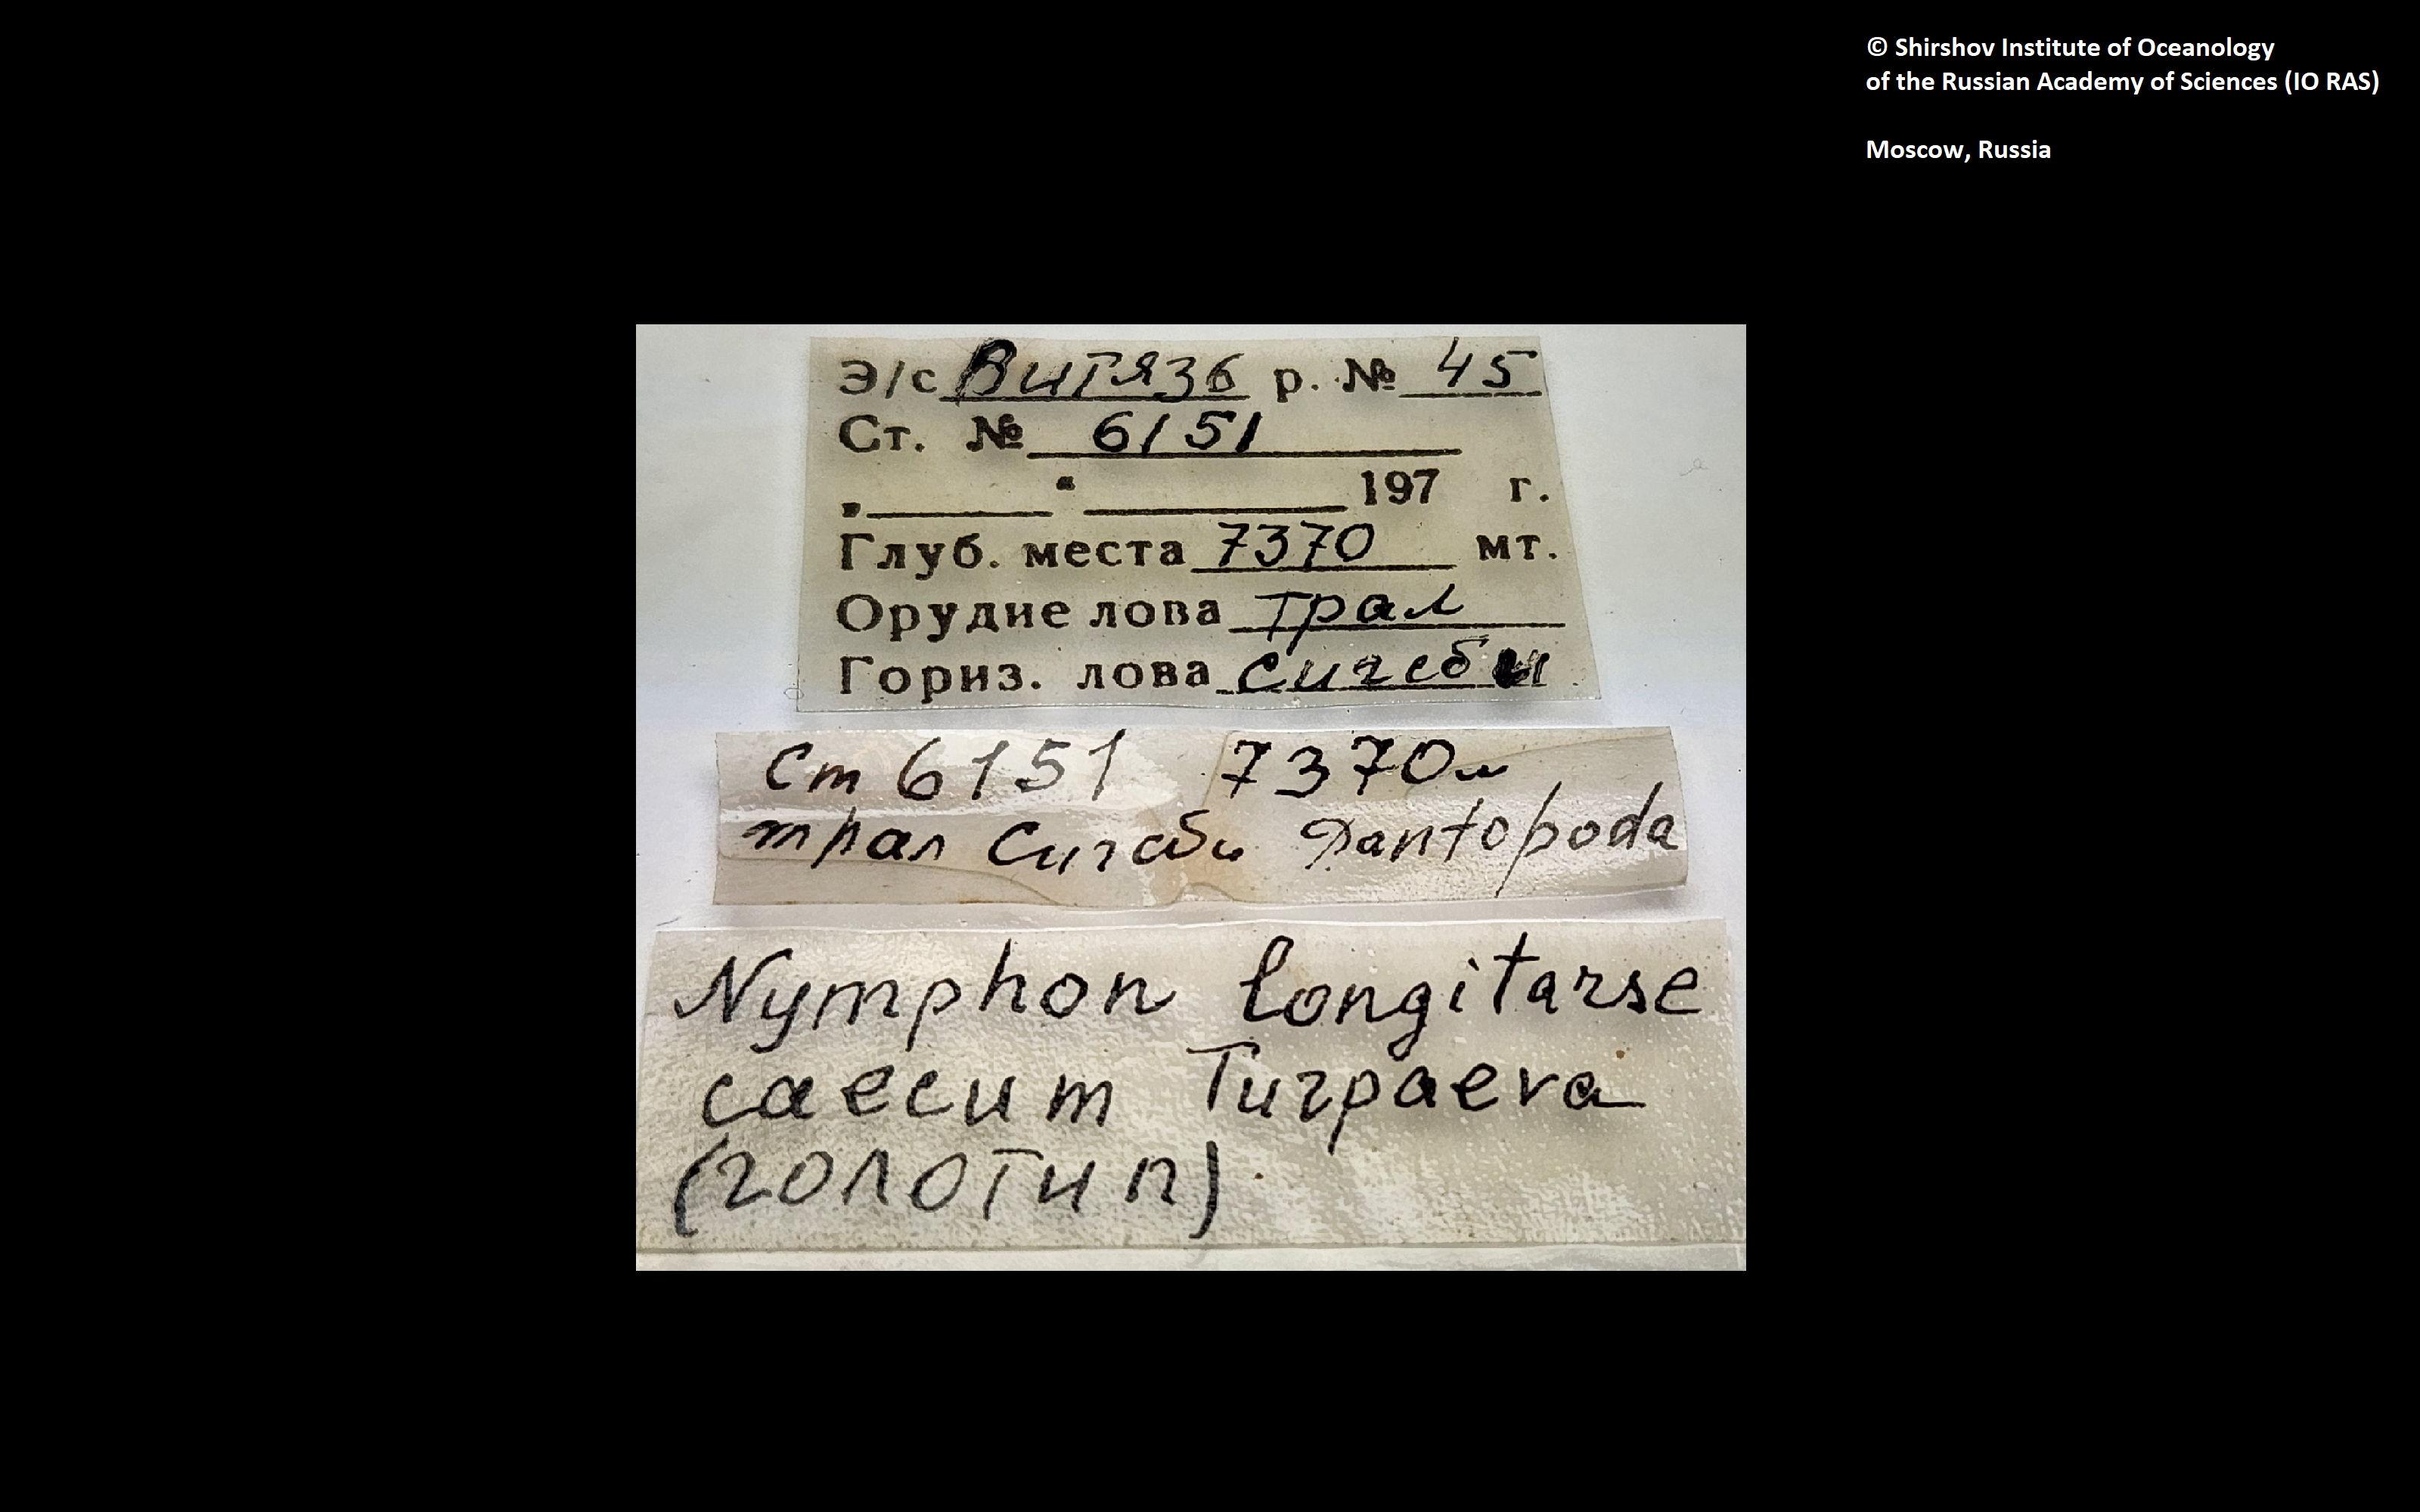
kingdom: Animalia
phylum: Arthropoda
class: Pycnogonida
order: Pantopoda
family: Nymphonidae
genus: Nymphon
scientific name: Nymphon longitarse
